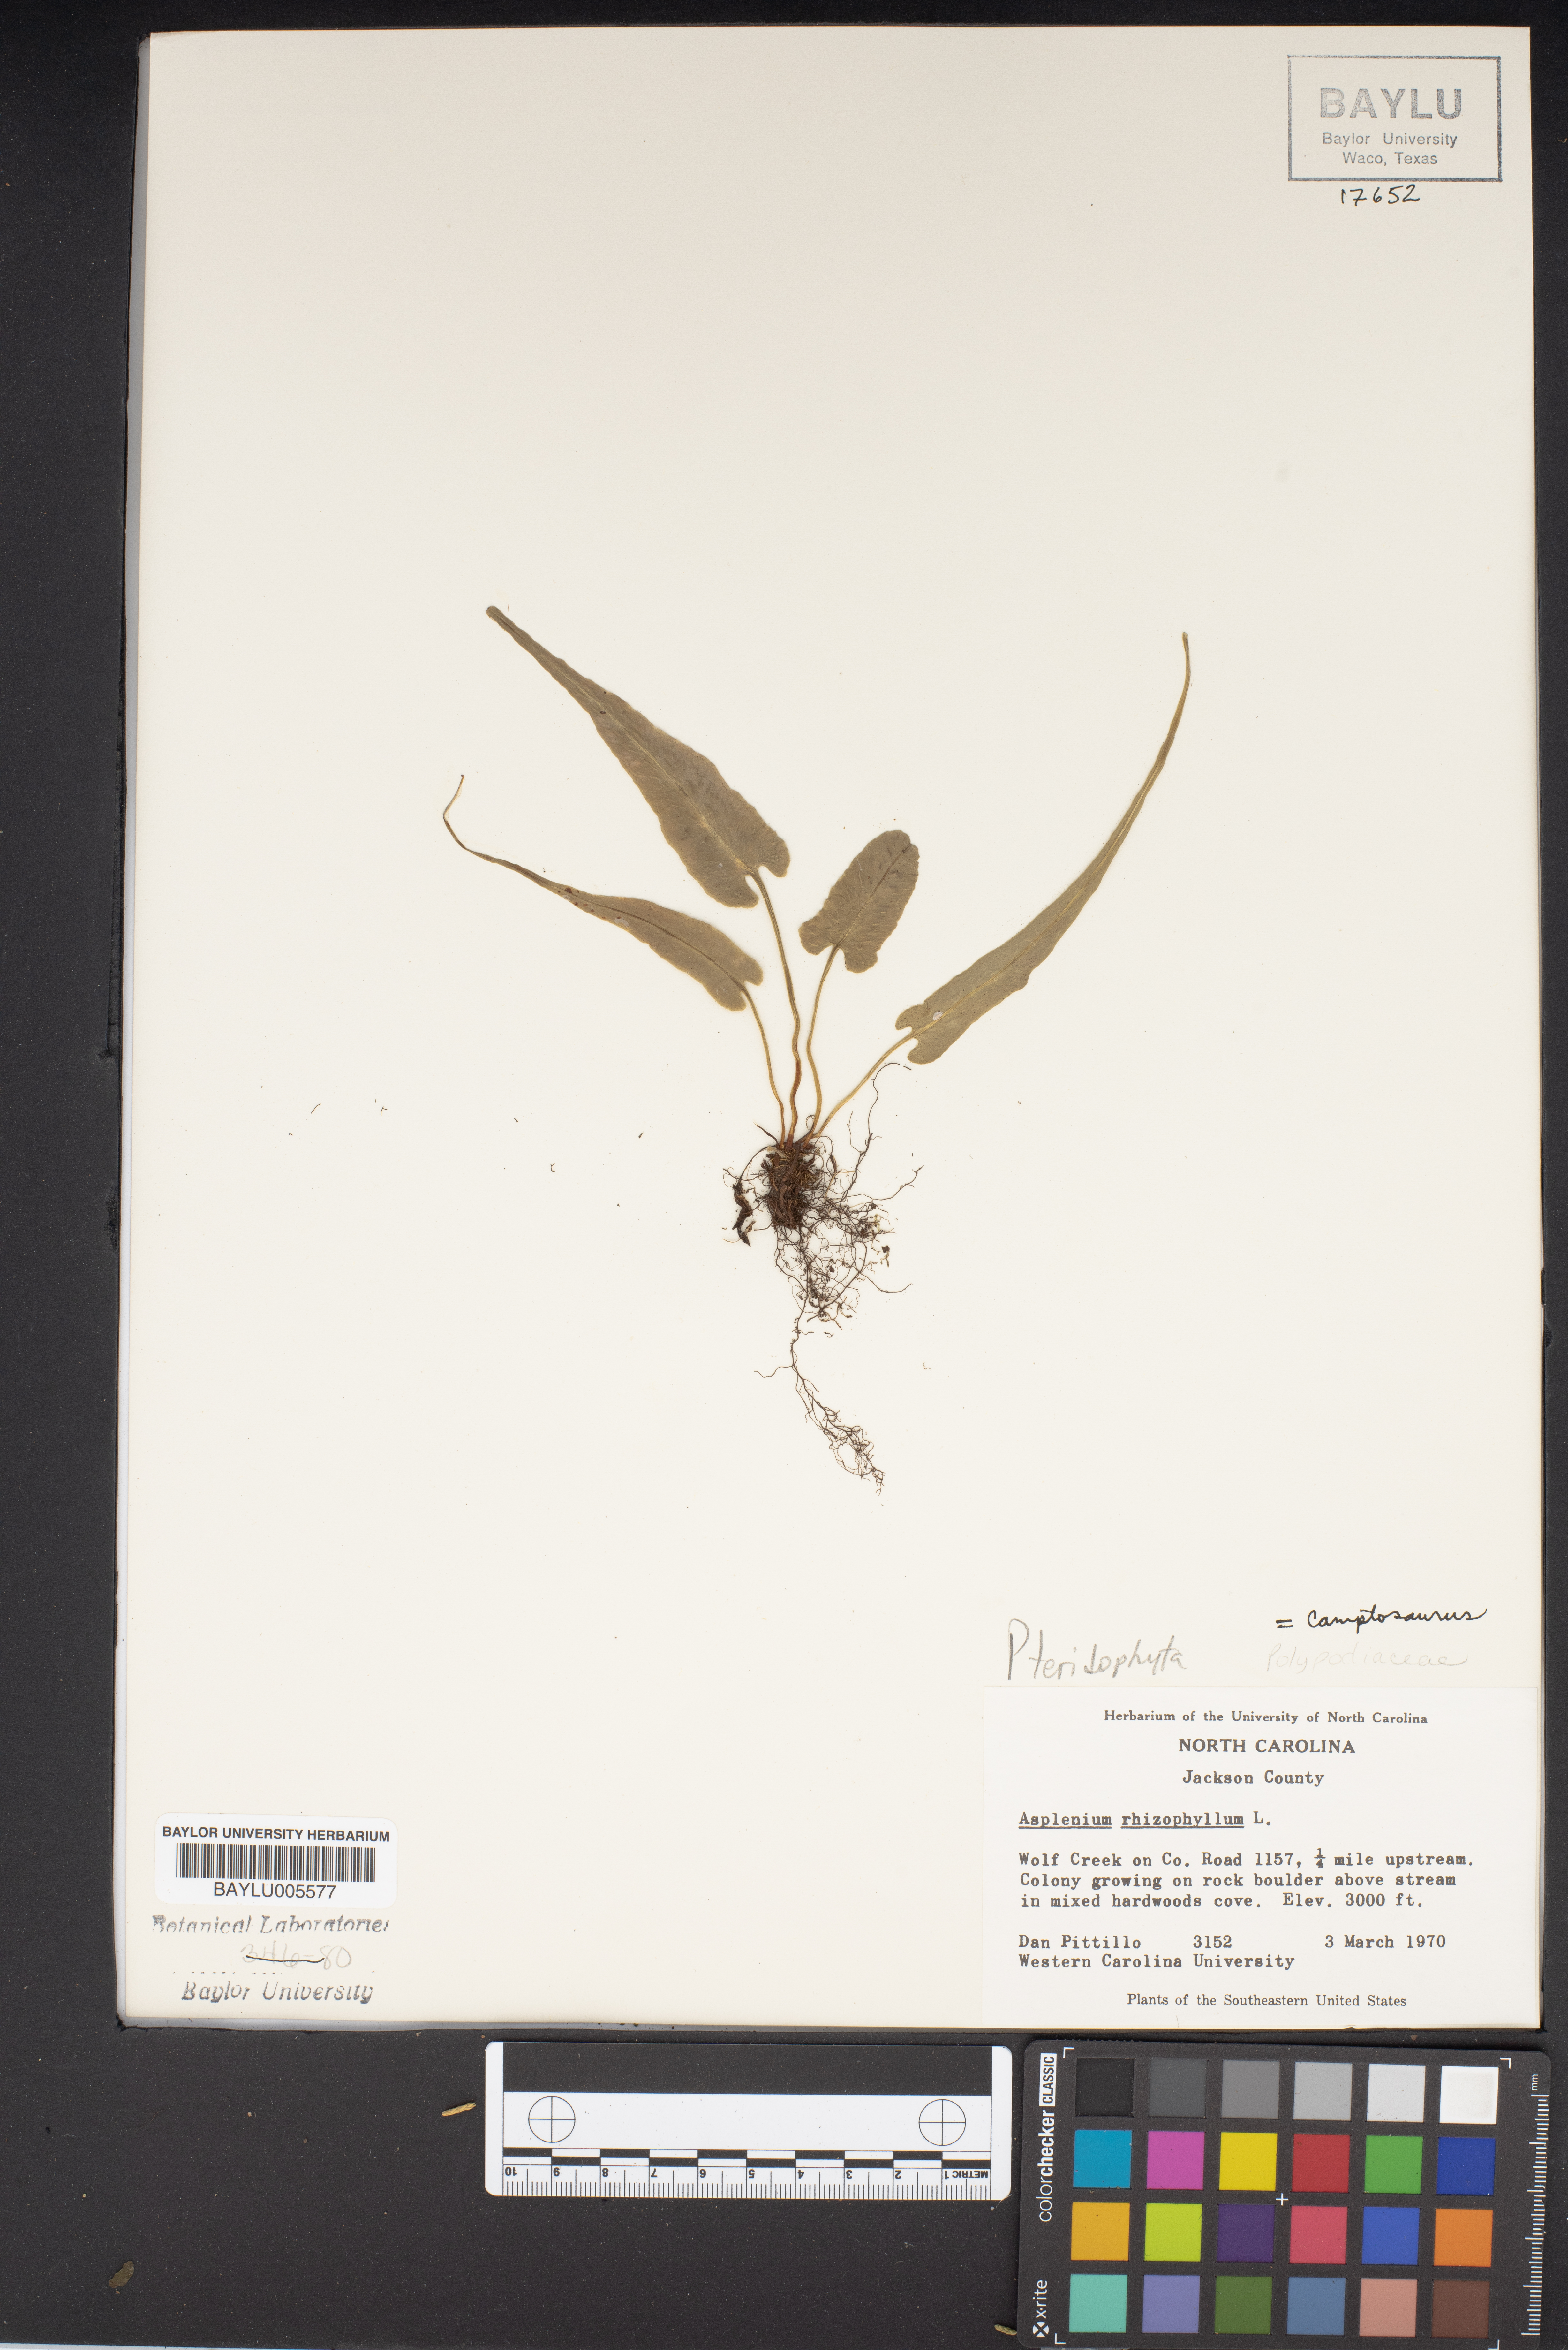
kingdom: Plantae
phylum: Tracheophyta
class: Polypodiopsida
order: Polypodiales
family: Aspleniaceae
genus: Asplenium
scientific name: Asplenium rhizophorum
